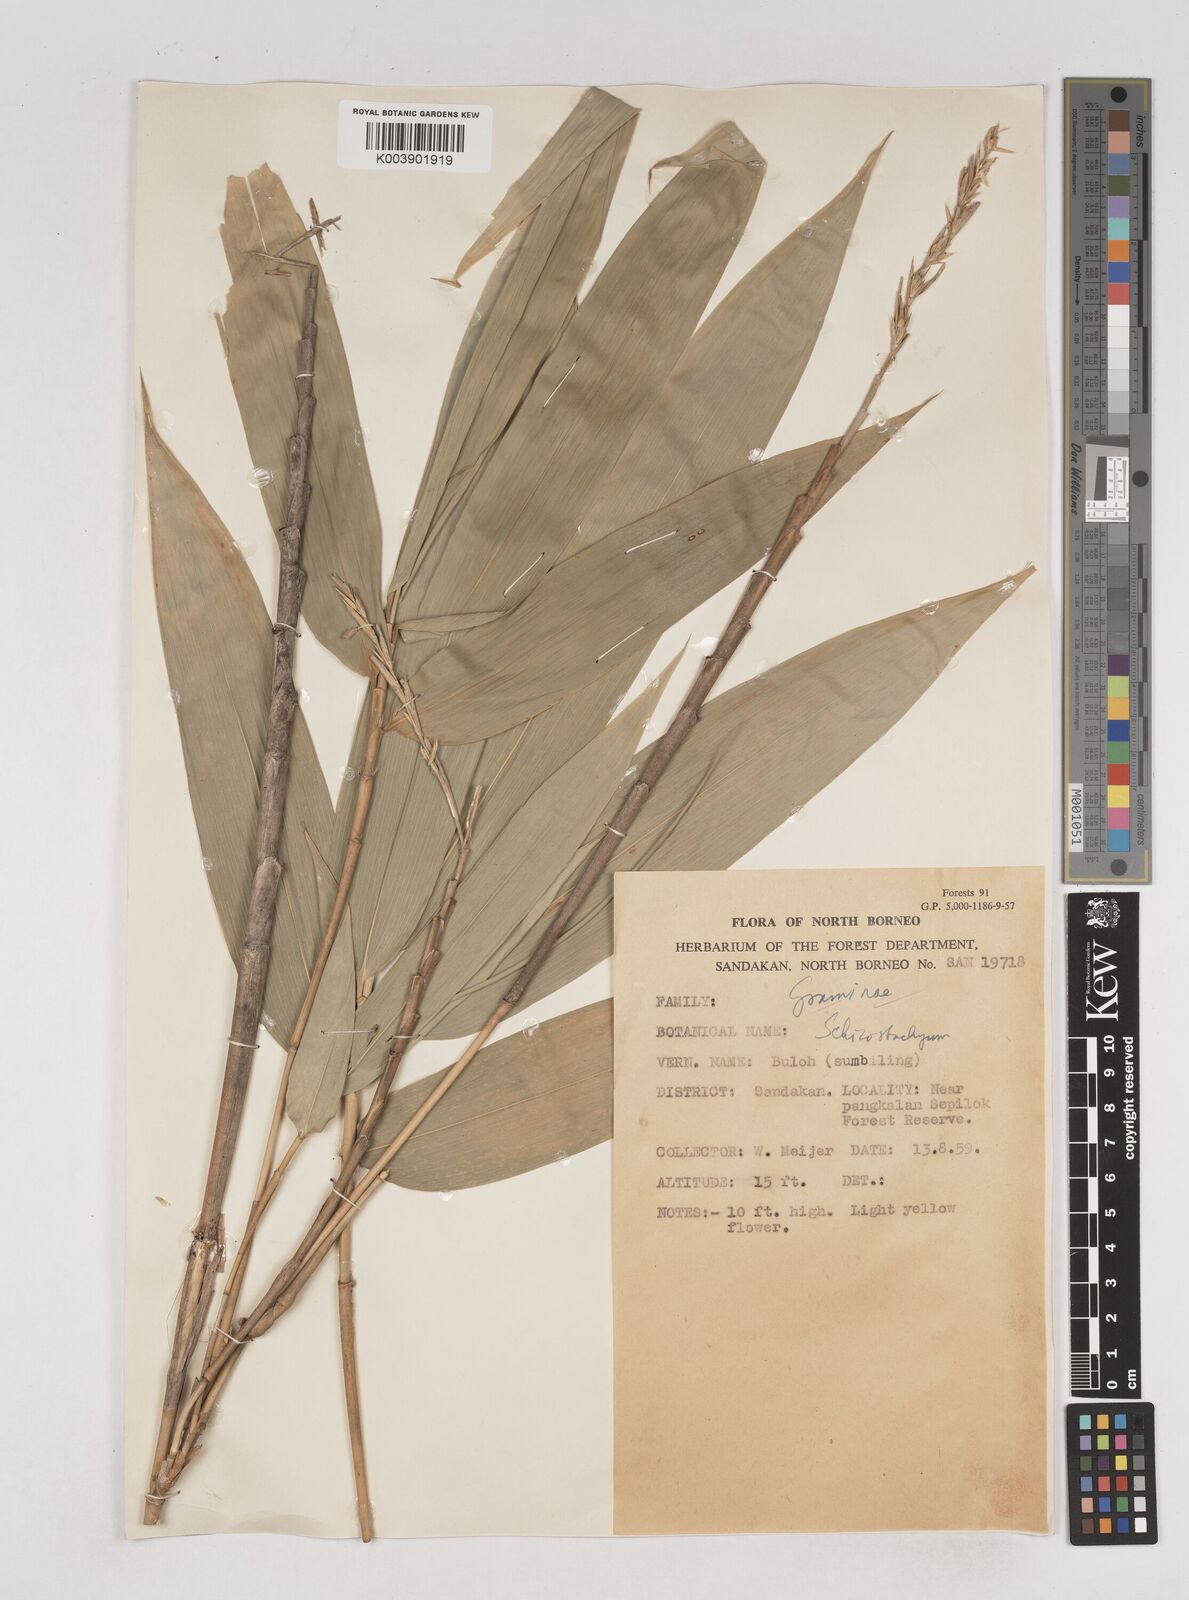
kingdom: Plantae
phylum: Tracheophyta
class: Liliopsida
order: Poales
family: Poaceae
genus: Schizostachyum
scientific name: Schizostachyum brachycladum
